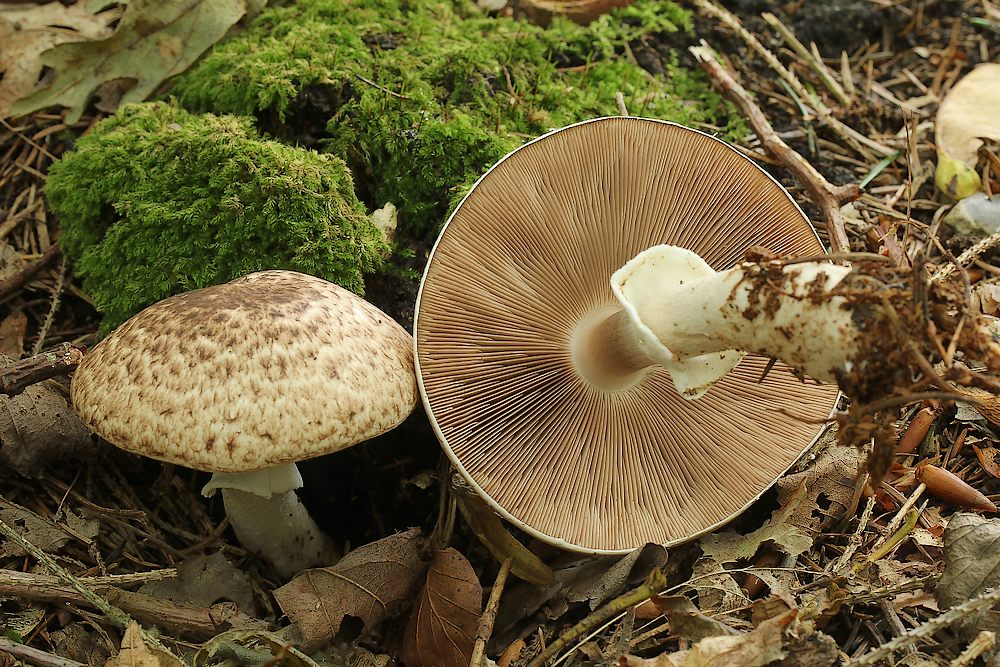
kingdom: Fungi
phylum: Basidiomycota
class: Agaricomycetes
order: Agaricales
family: Agaricaceae
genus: Agaricus
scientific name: Agaricus
